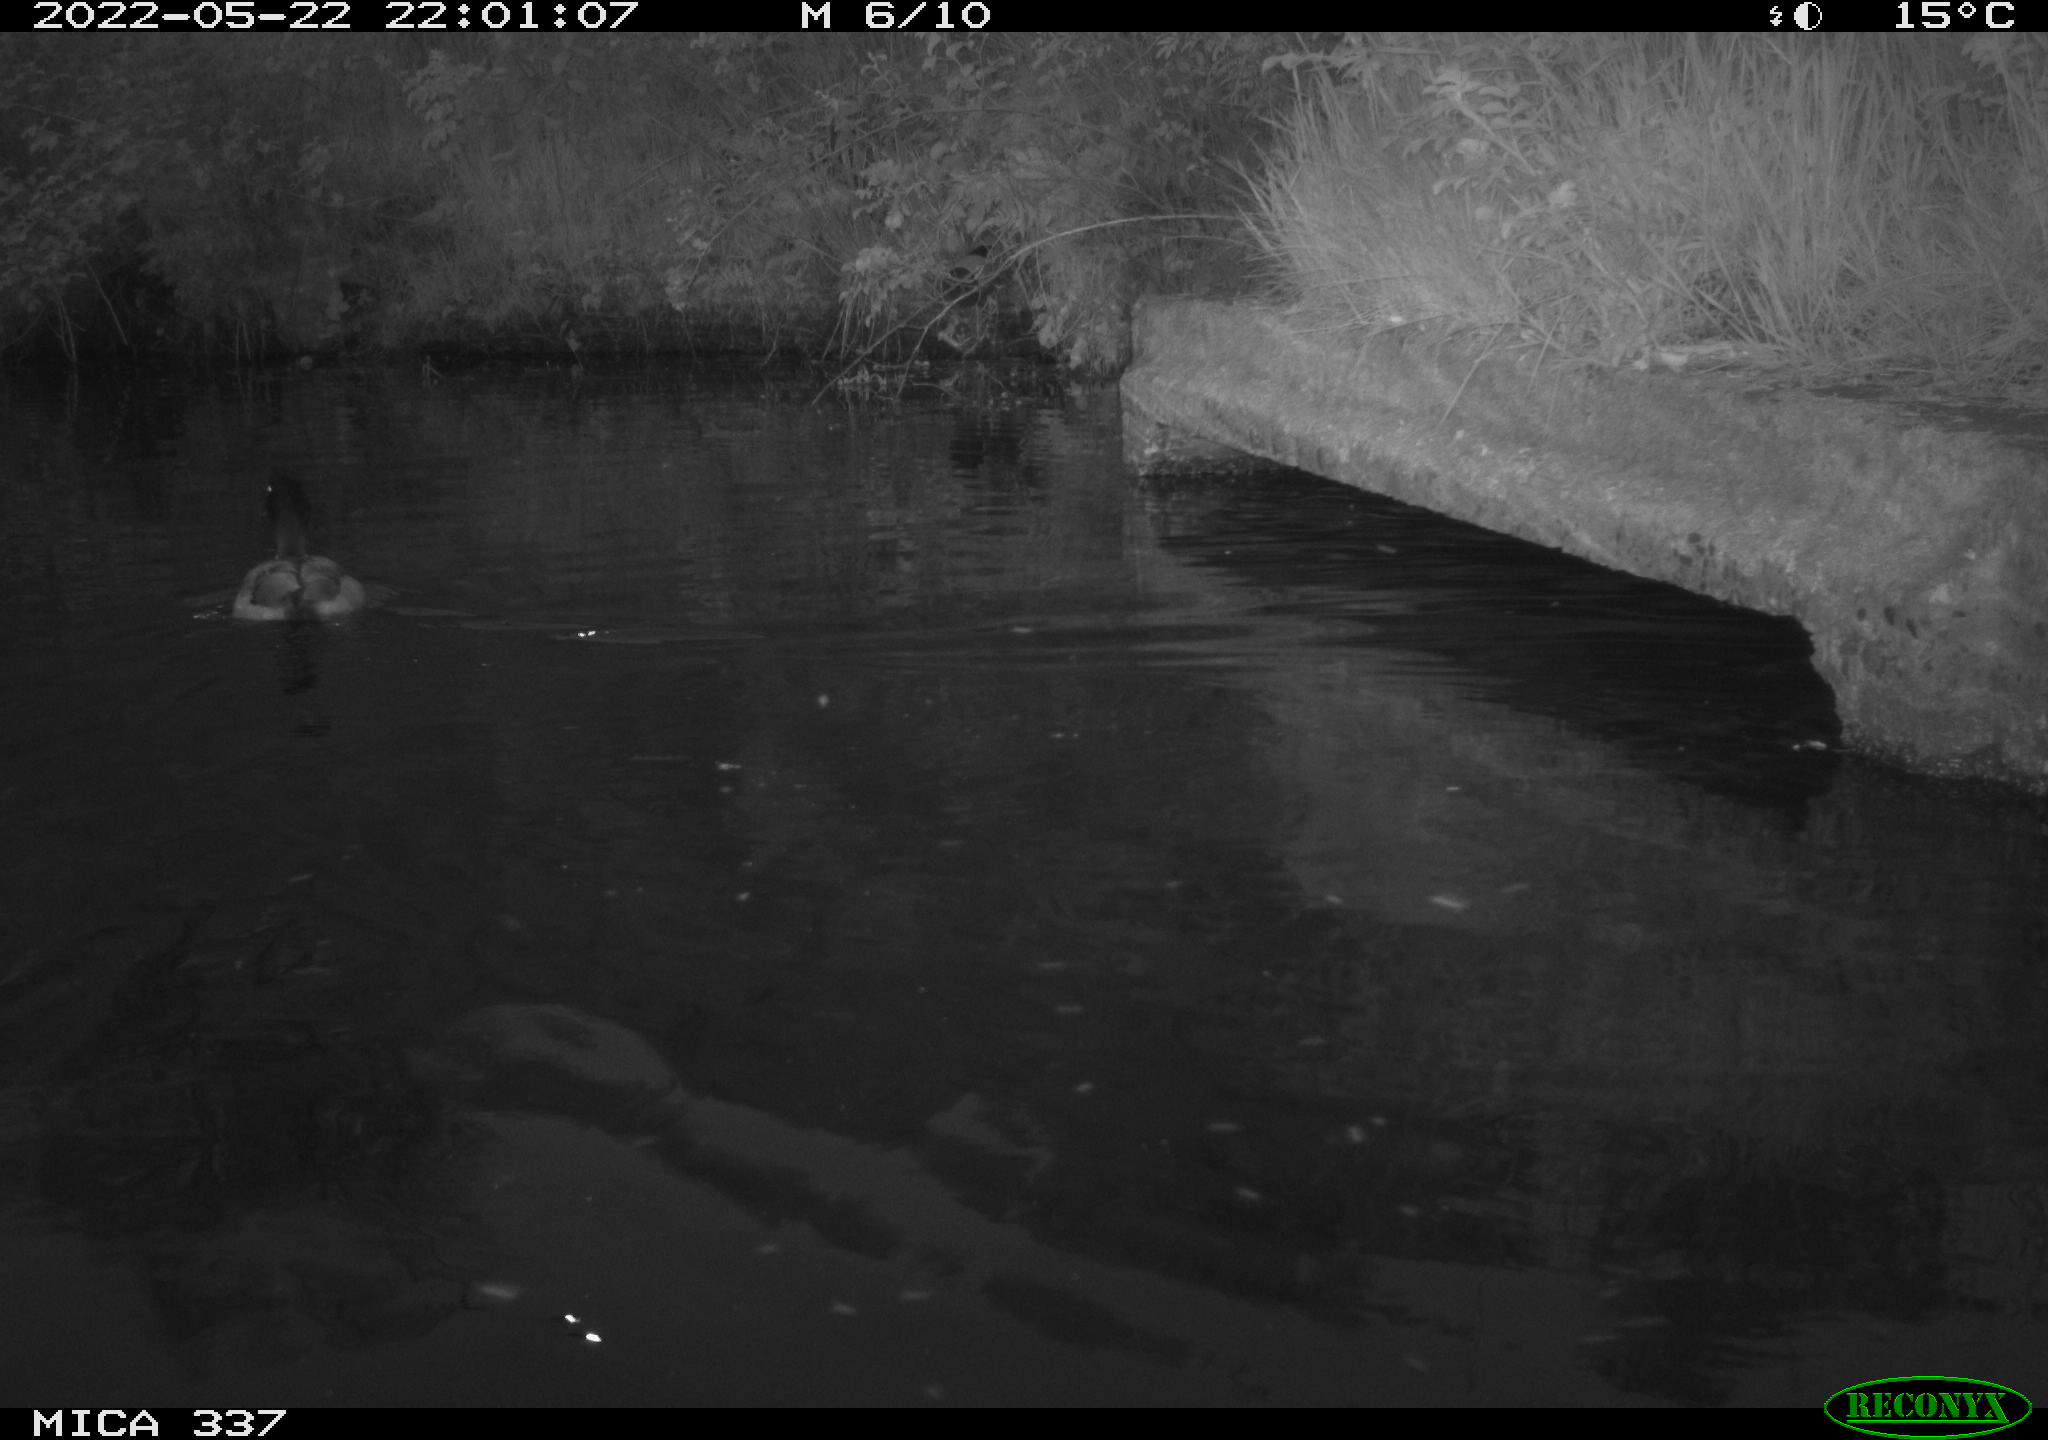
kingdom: Animalia
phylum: Chordata
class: Aves
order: Anseriformes
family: Anatidae
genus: Anas
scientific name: Anas platyrhynchos
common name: Mallard
